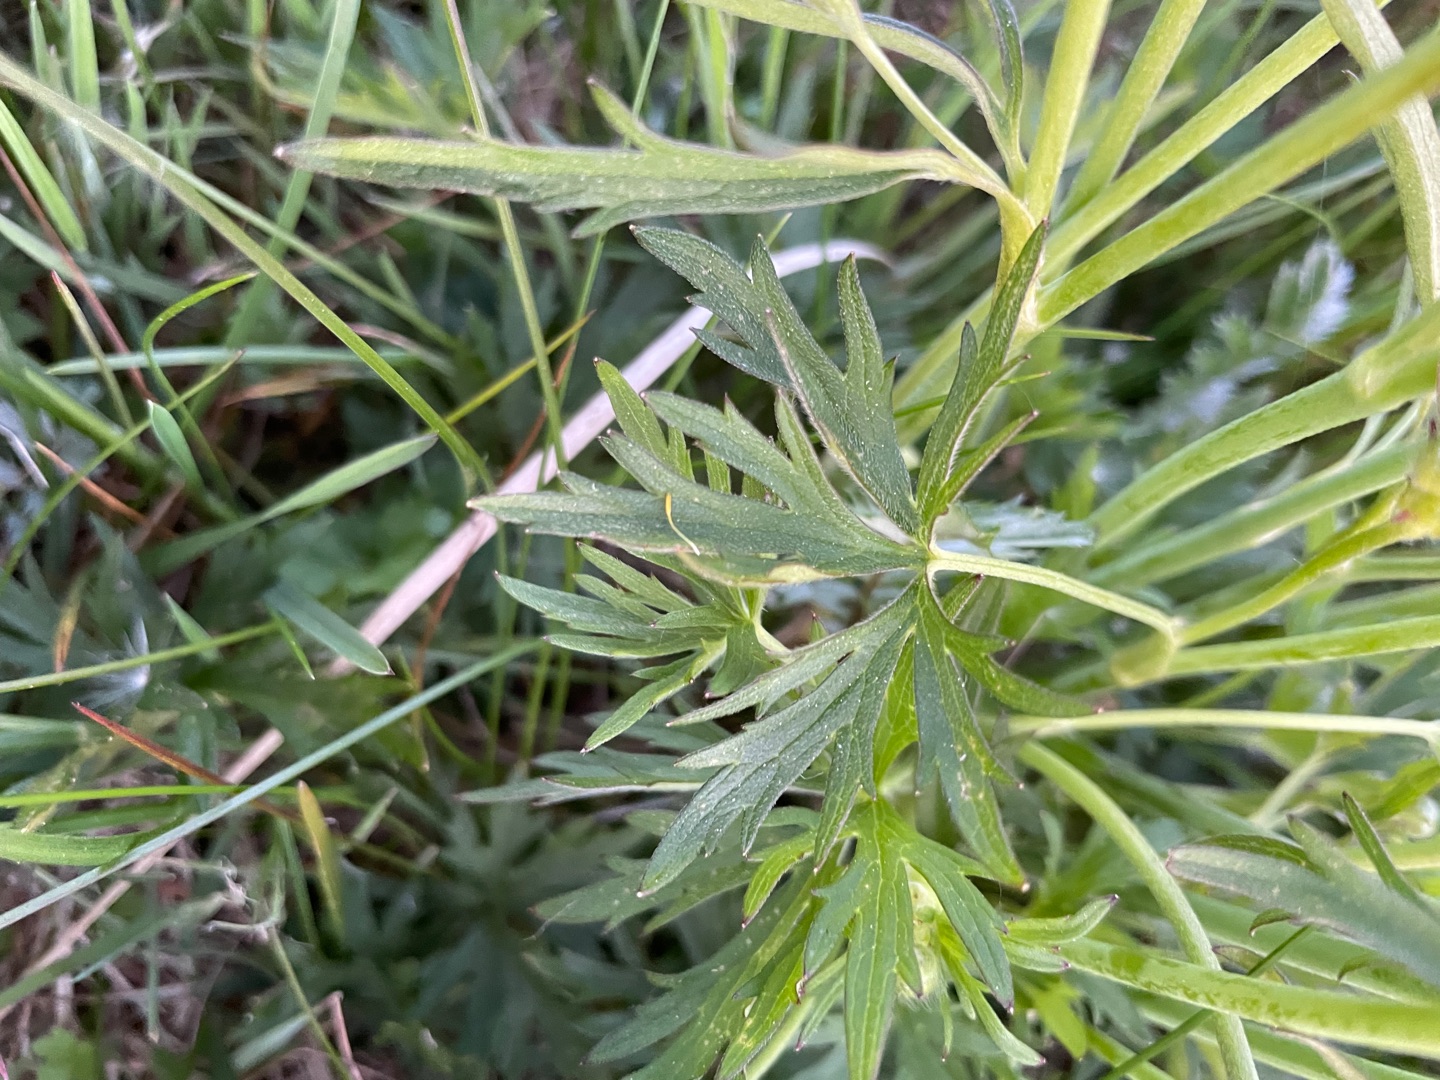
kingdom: Plantae
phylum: Tracheophyta
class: Magnoliopsida
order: Ranunculales
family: Ranunculaceae
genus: Ranunculus
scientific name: Ranunculus acris
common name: Bidende ranunkel
